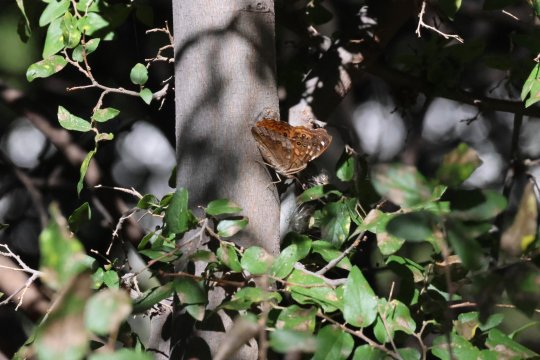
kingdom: Animalia
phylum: Arthropoda
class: Insecta
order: Lepidoptera
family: Nymphalidae
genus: Asterocampa
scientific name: Asterocampa leilia
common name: Empress Leilia
